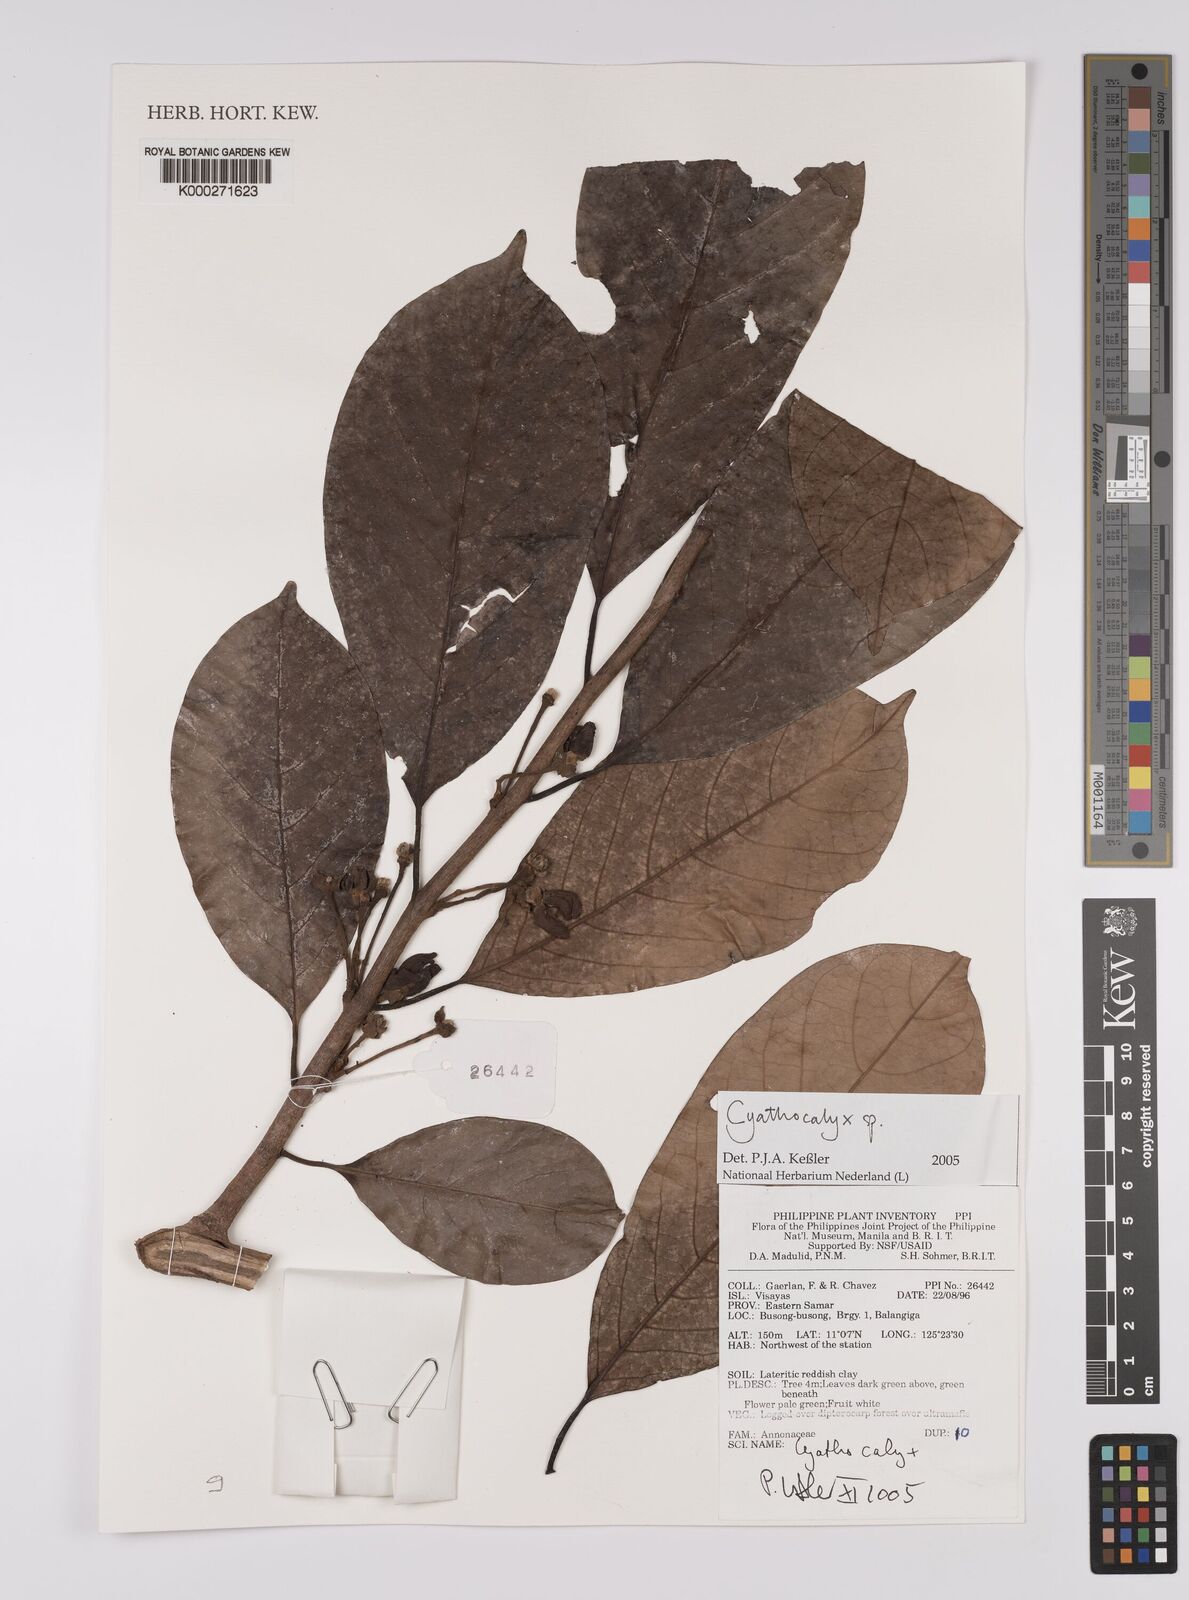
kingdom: Plantae
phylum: Tracheophyta
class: Magnoliopsida
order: Magnoliales
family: Annonaceae
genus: Cyathocalyx
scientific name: Cyathocalyx
